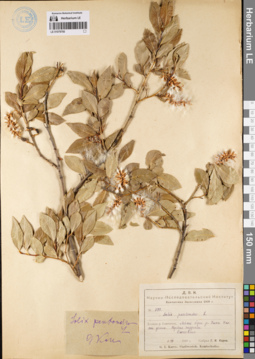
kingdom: Plantae
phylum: Tracheophyta
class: Magnoliopsida
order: Malpighiales
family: Salicaceae
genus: Salix
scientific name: Salix pseudopentandra
